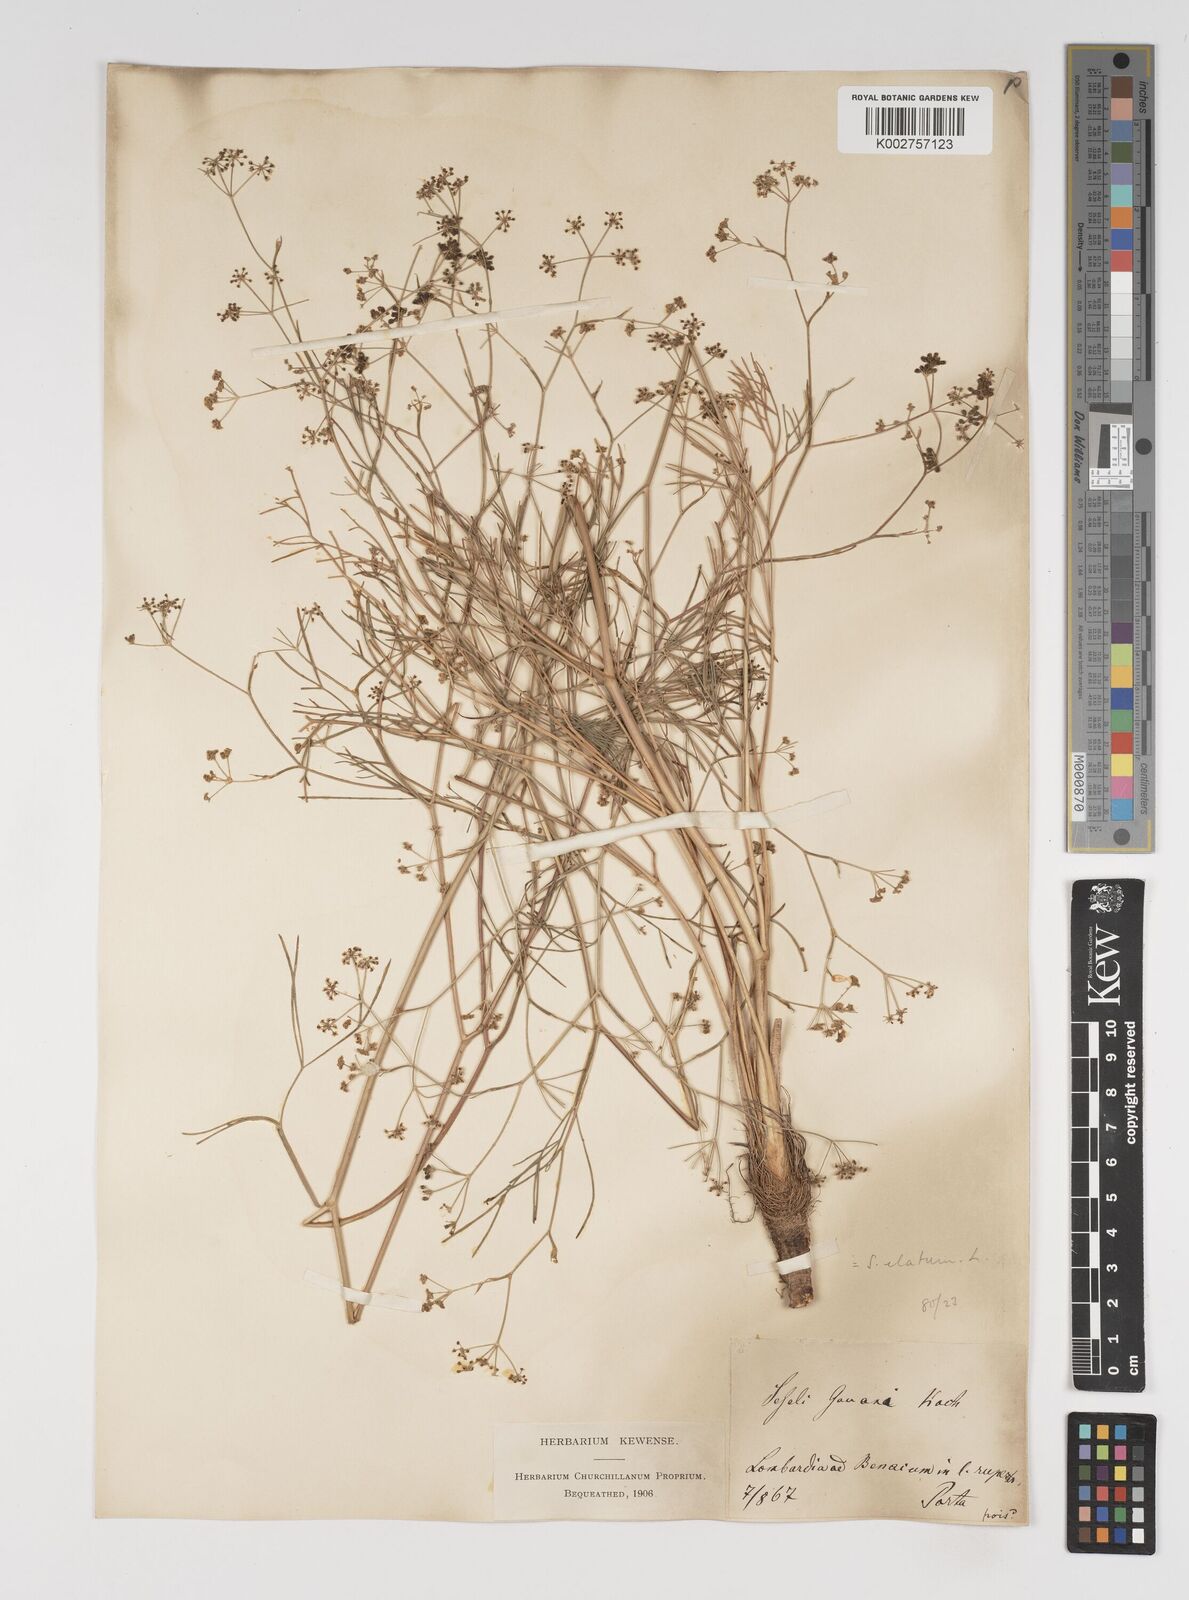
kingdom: Plantae
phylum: Tracheophyta
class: Magnoliopsida
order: Apiales
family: Apiaceae
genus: Seseli
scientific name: Seseli longifolium
